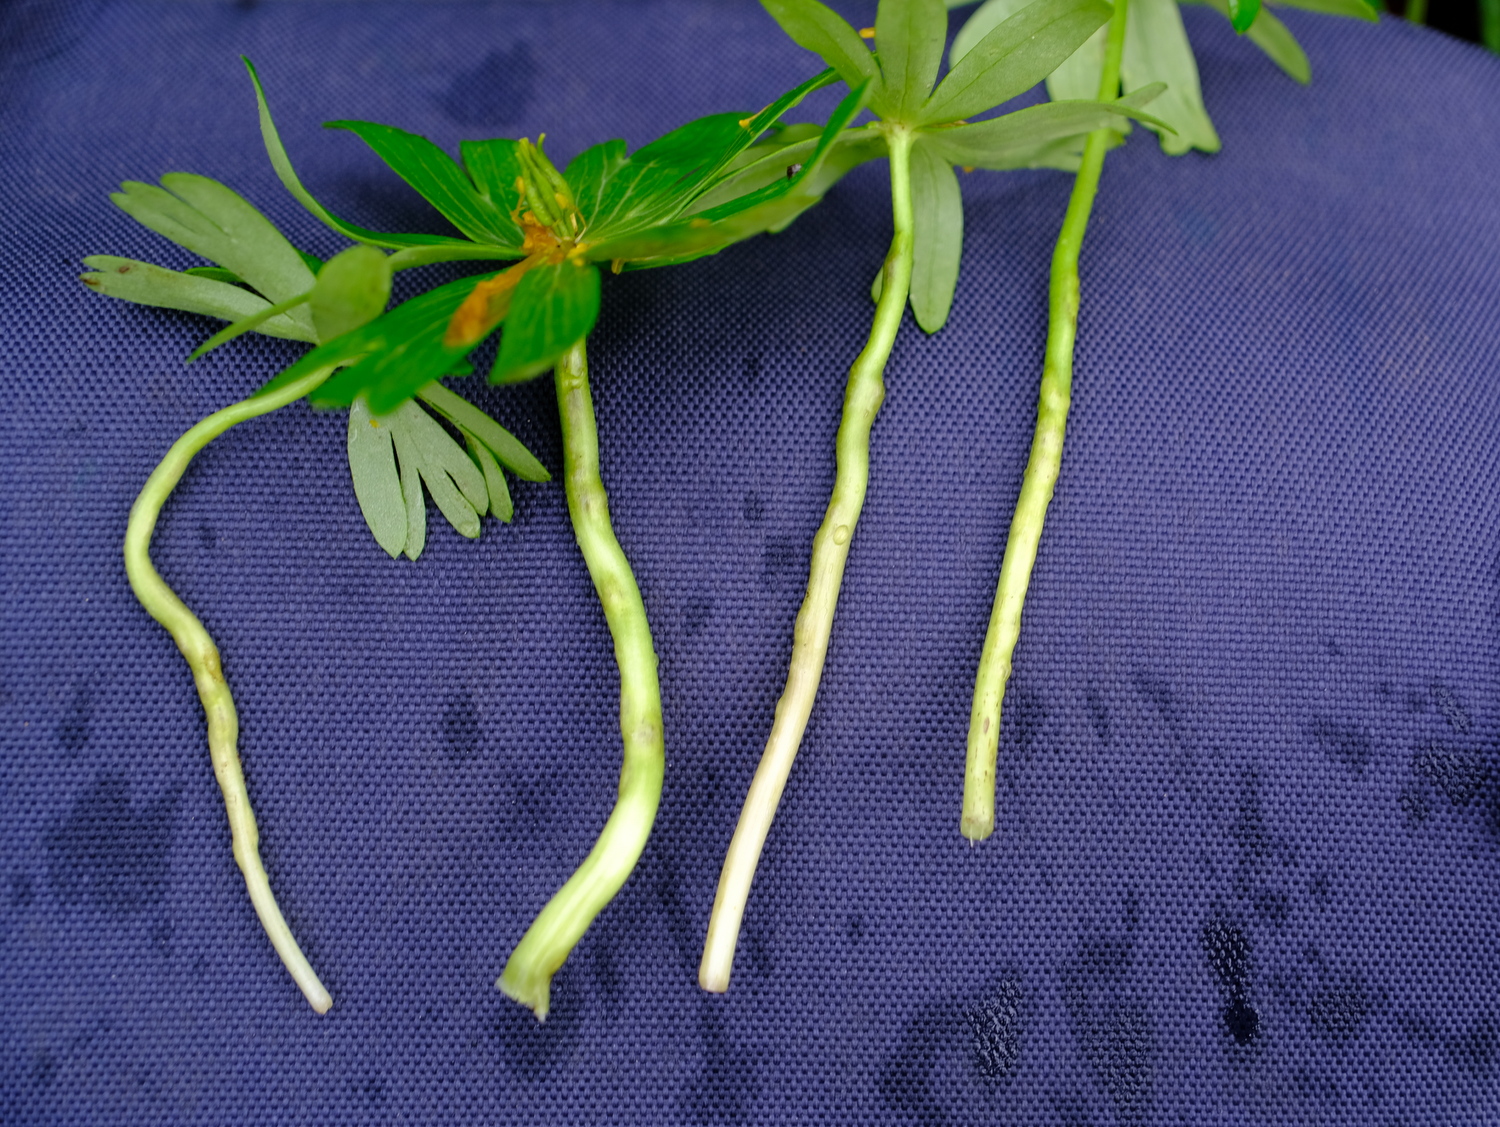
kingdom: Fungi
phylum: Basidiomycota
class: Ustilaginomycetes
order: Urocystidales
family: Urocystidaceae
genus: Urocystis
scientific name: Urocystis eranthidis
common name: erantis-brand
